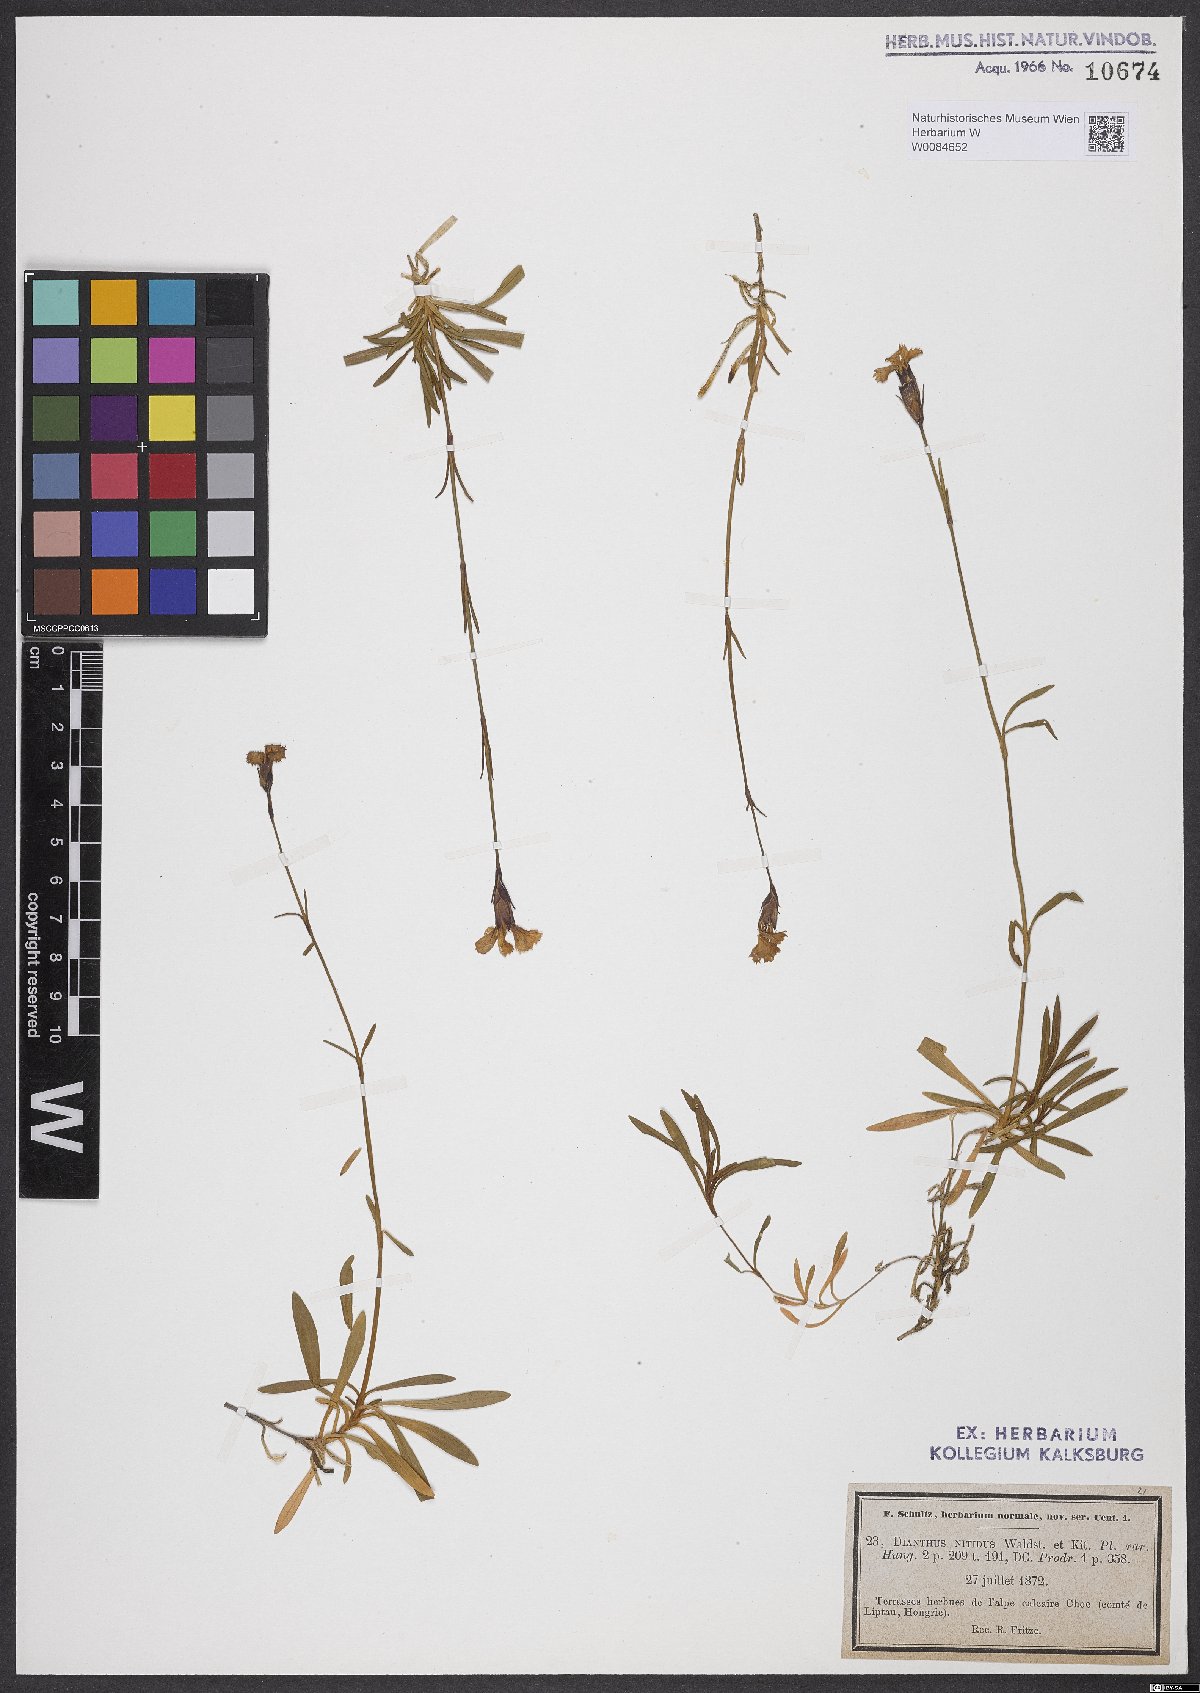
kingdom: Plantae
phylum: Tracheophyta
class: Magnoliopsida
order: Caryophyllales
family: Caryophyllaceae
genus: Dianthus
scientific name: Dianthus nitidus
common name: Carpathian glossy pink
